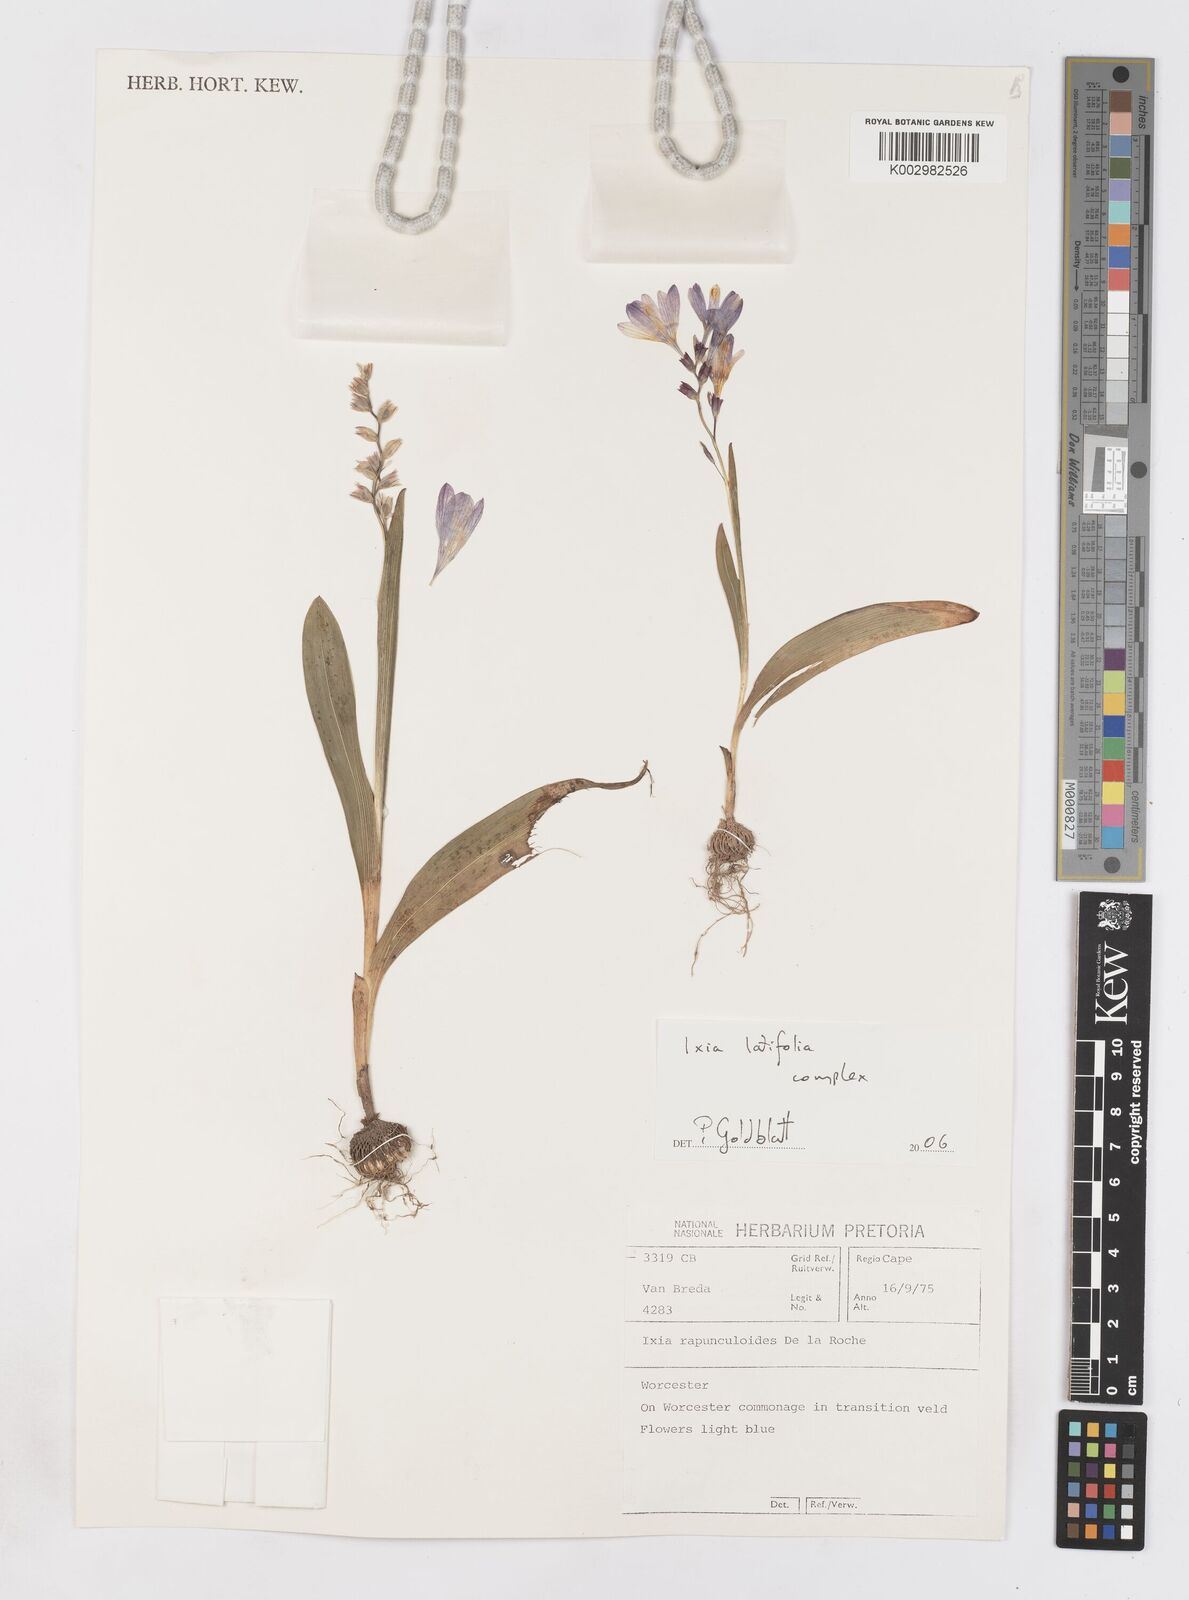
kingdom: Plantae
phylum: Tracheophyta
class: Liliopsida
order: Asparagales
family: Iridaceae
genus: Ixia
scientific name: Ixia latifolia
